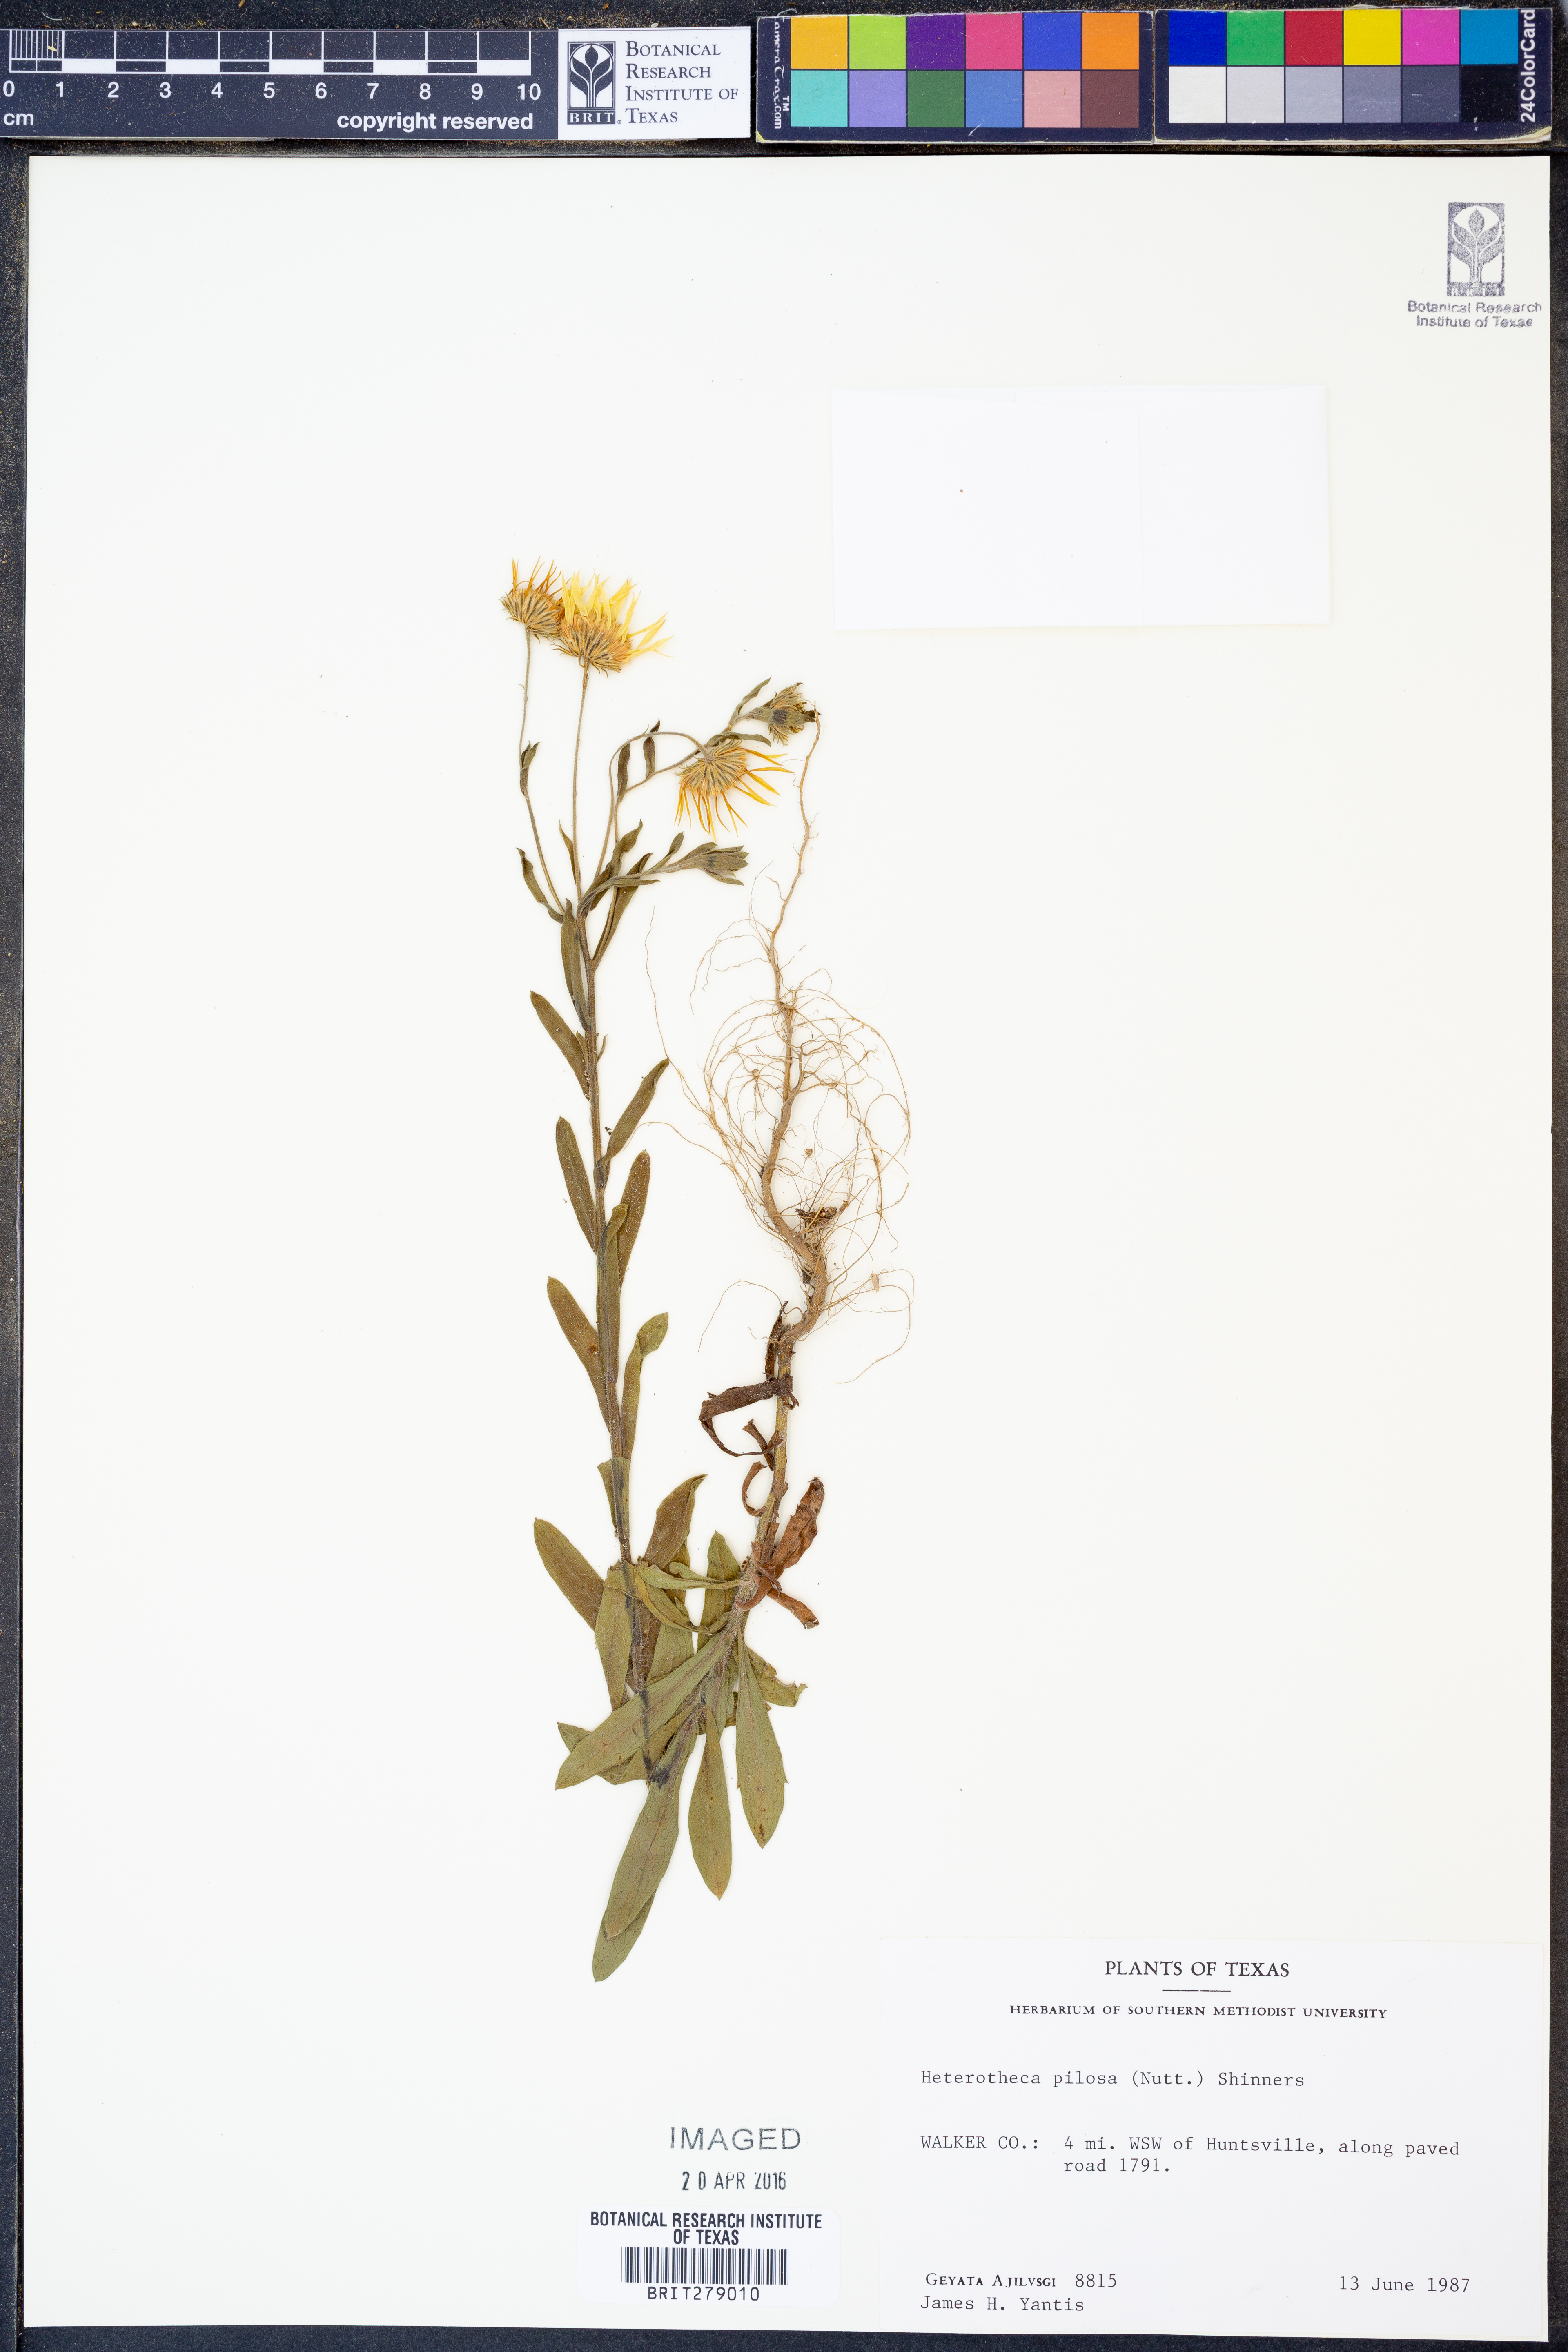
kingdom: Plantae
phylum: Tracheophyta
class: Magnoliopsida
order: Asterales
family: Asteraceae
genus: Bradburia
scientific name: Bradburia pilosa
